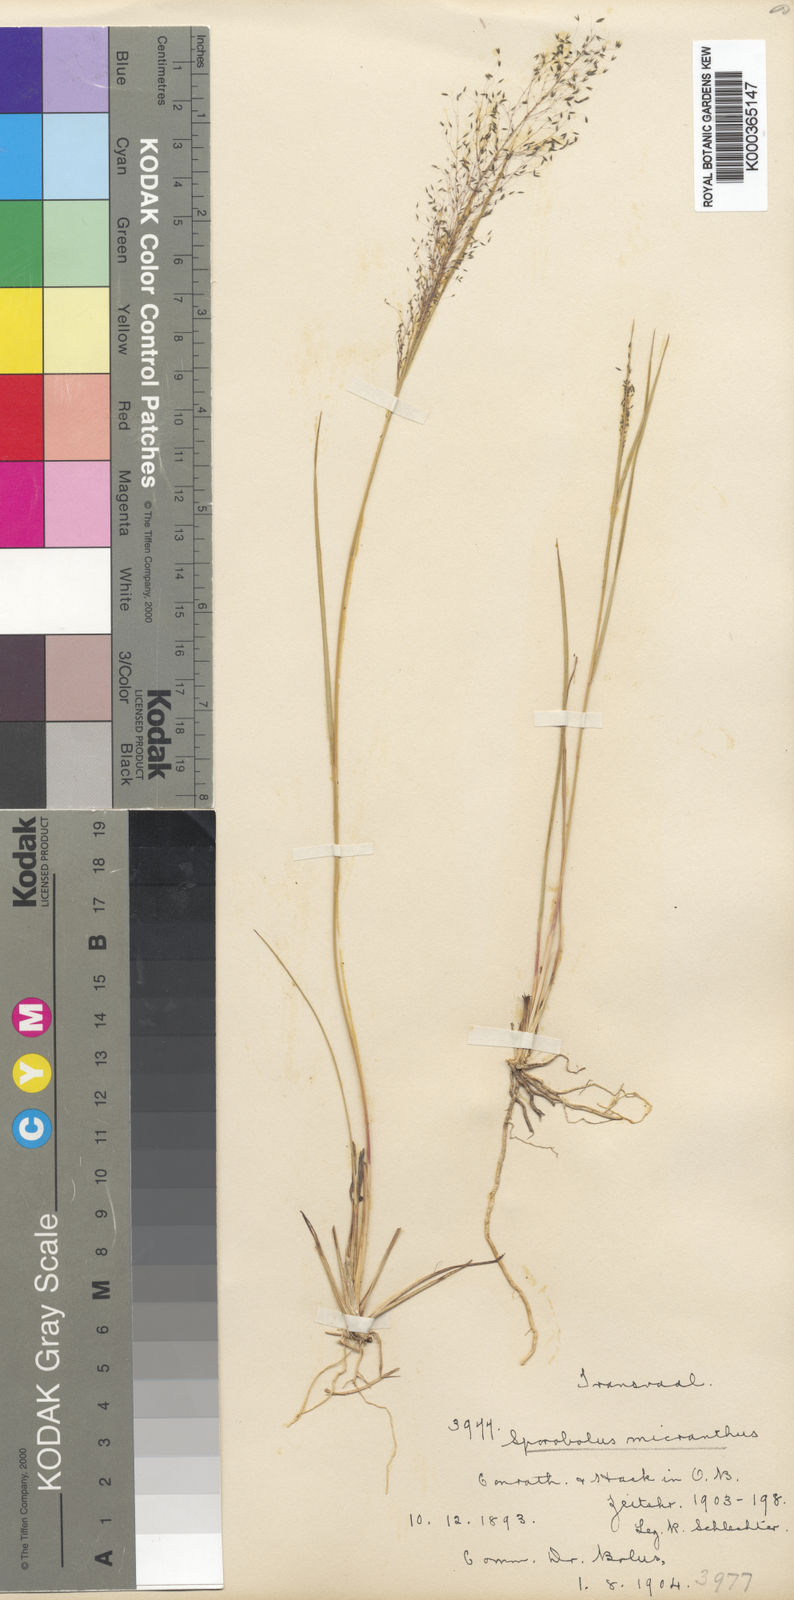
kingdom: Plantae
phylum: Tracheophyta
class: Liliopsida
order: Poales
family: Poaceae
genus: Sporobolus
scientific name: Sporobolus welwitschii
